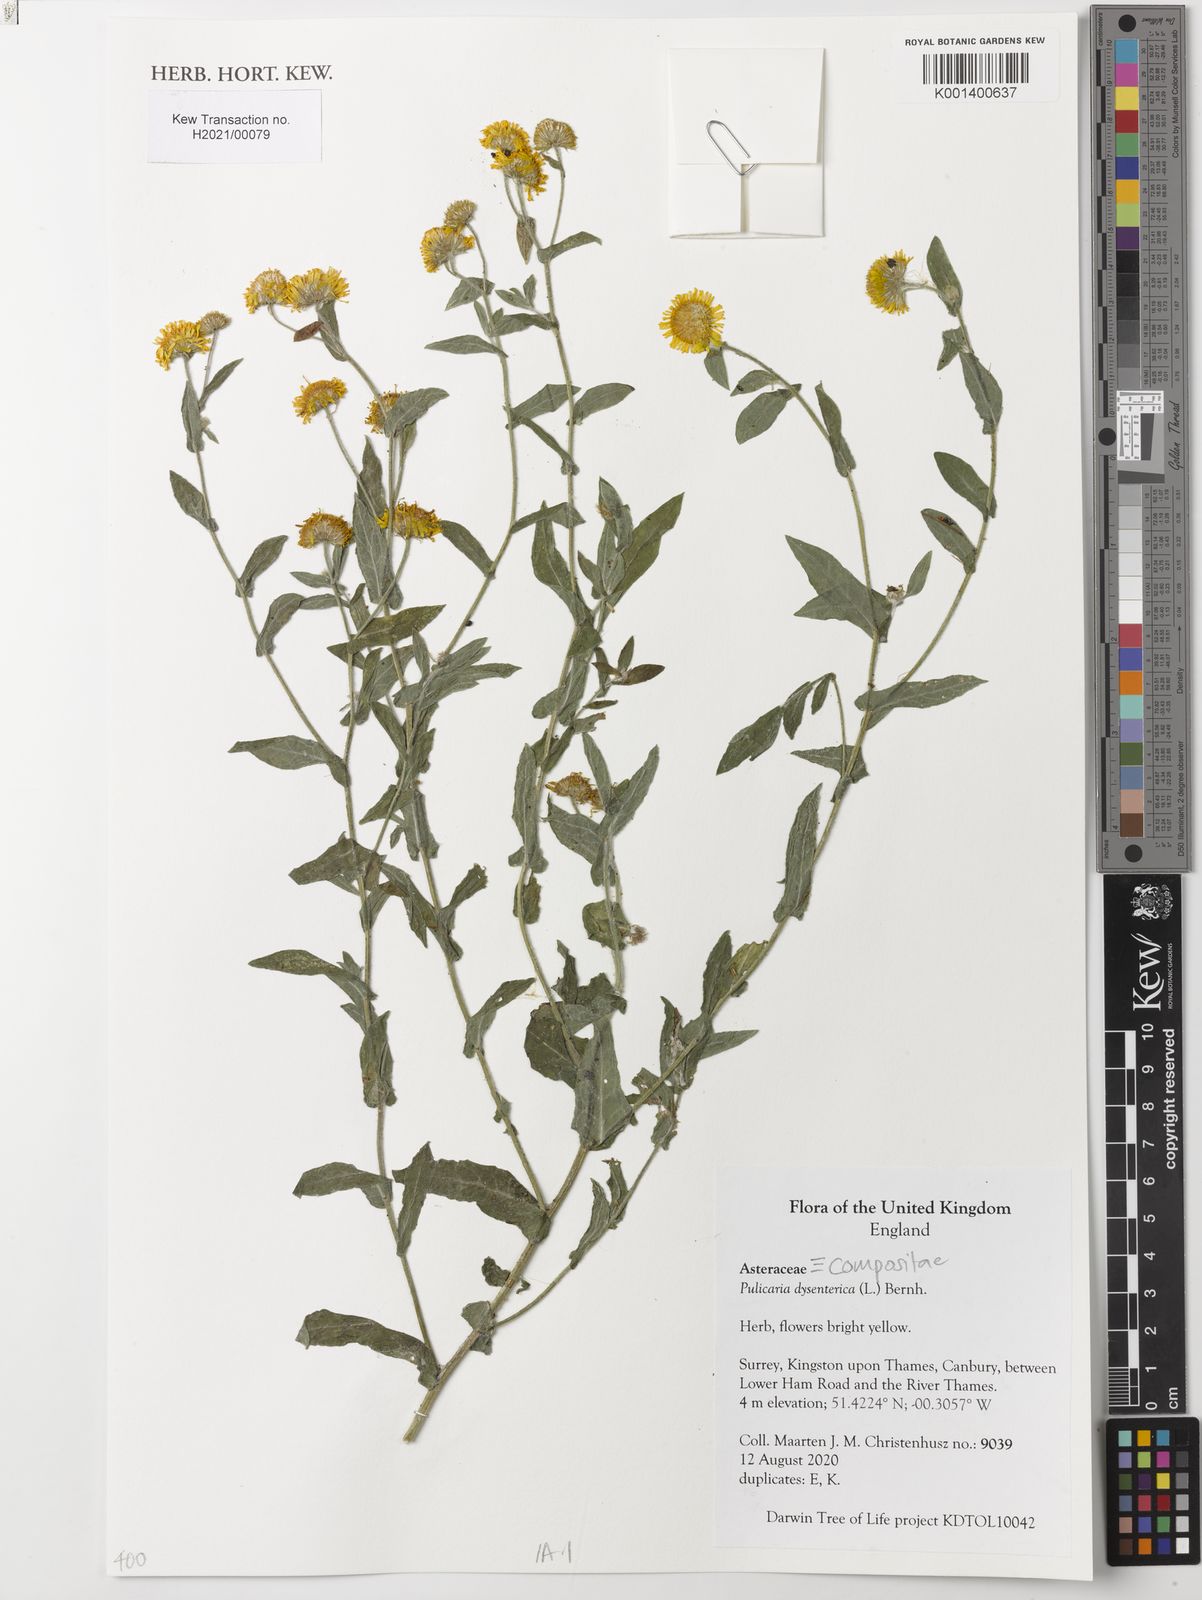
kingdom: Plantae
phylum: Tracheophyta
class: Magnoliopsida
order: Asterales
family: Asteraceae
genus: Pulicaria
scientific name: Pulicaria dysenterica
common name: Common fleabane
